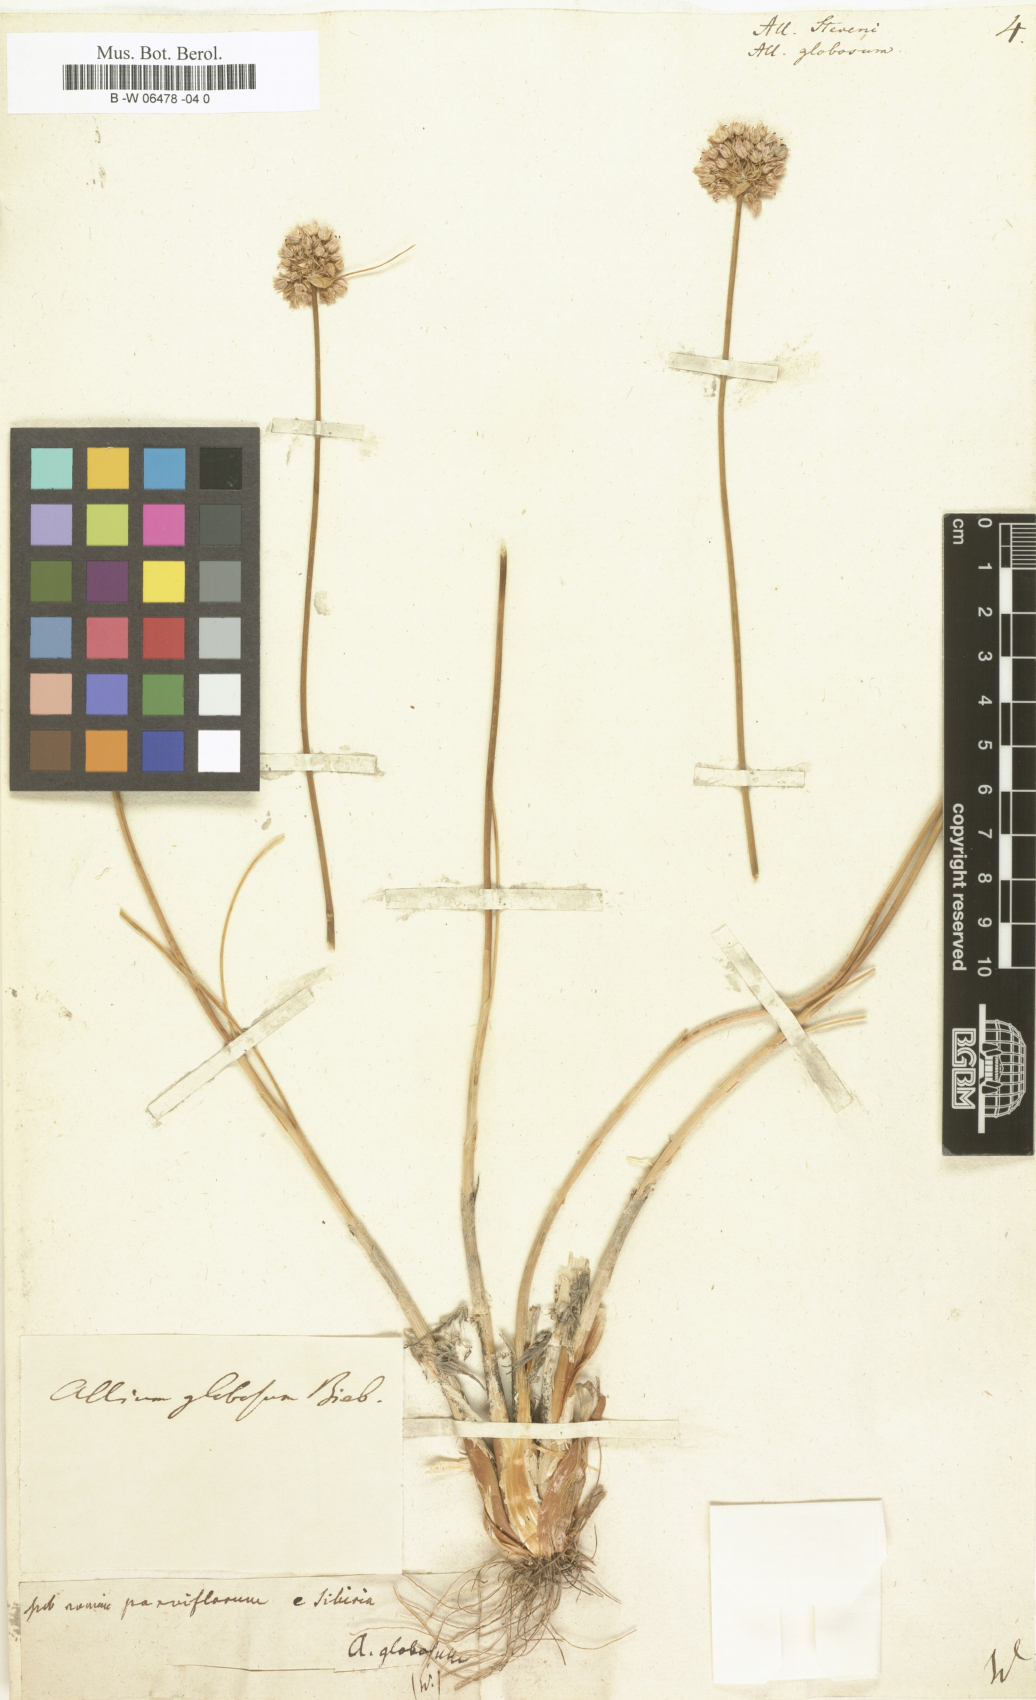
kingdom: Plantae
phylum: Tracheophyta
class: Liliopsida
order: Asparagales
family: Amaryllidaceae
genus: Allium
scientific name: Allium saxatile
